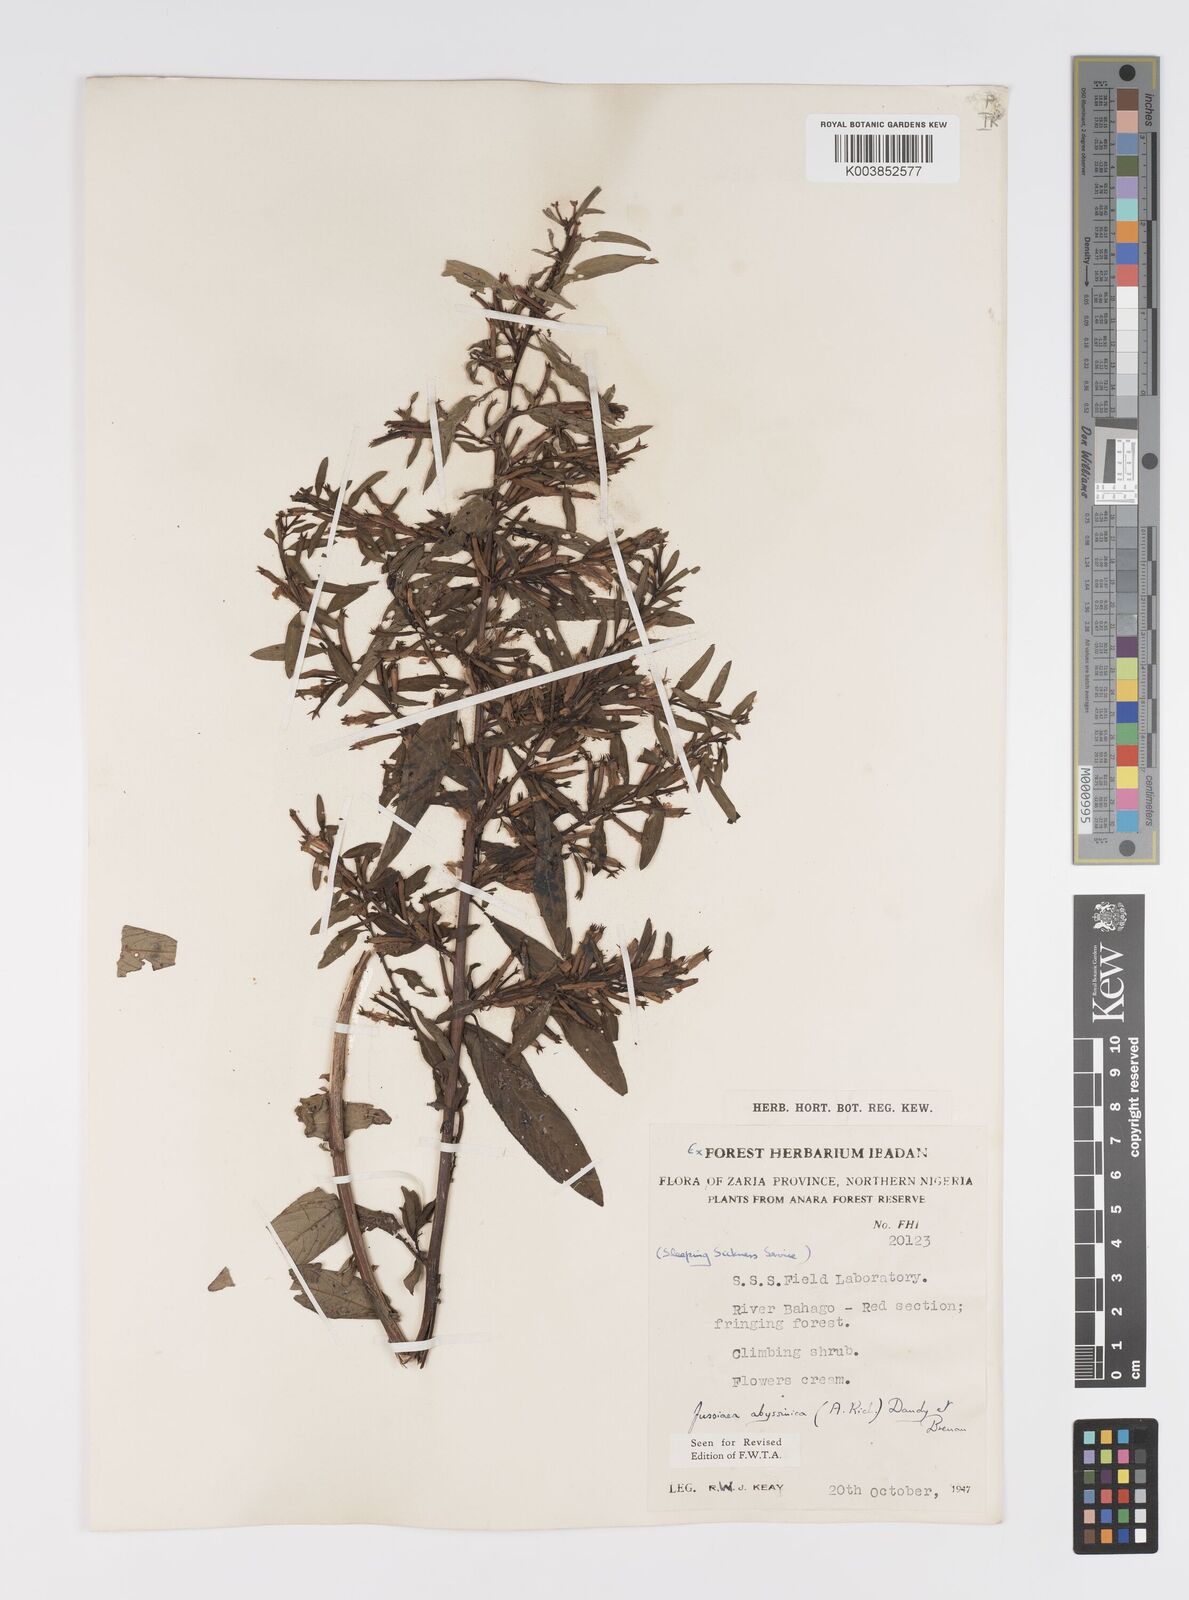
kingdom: Plantae
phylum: Tracheophyta
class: Magnoliopsida
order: Myrtales
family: Onagraceae
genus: Ludwigia
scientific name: Ludwigia abyssinica
